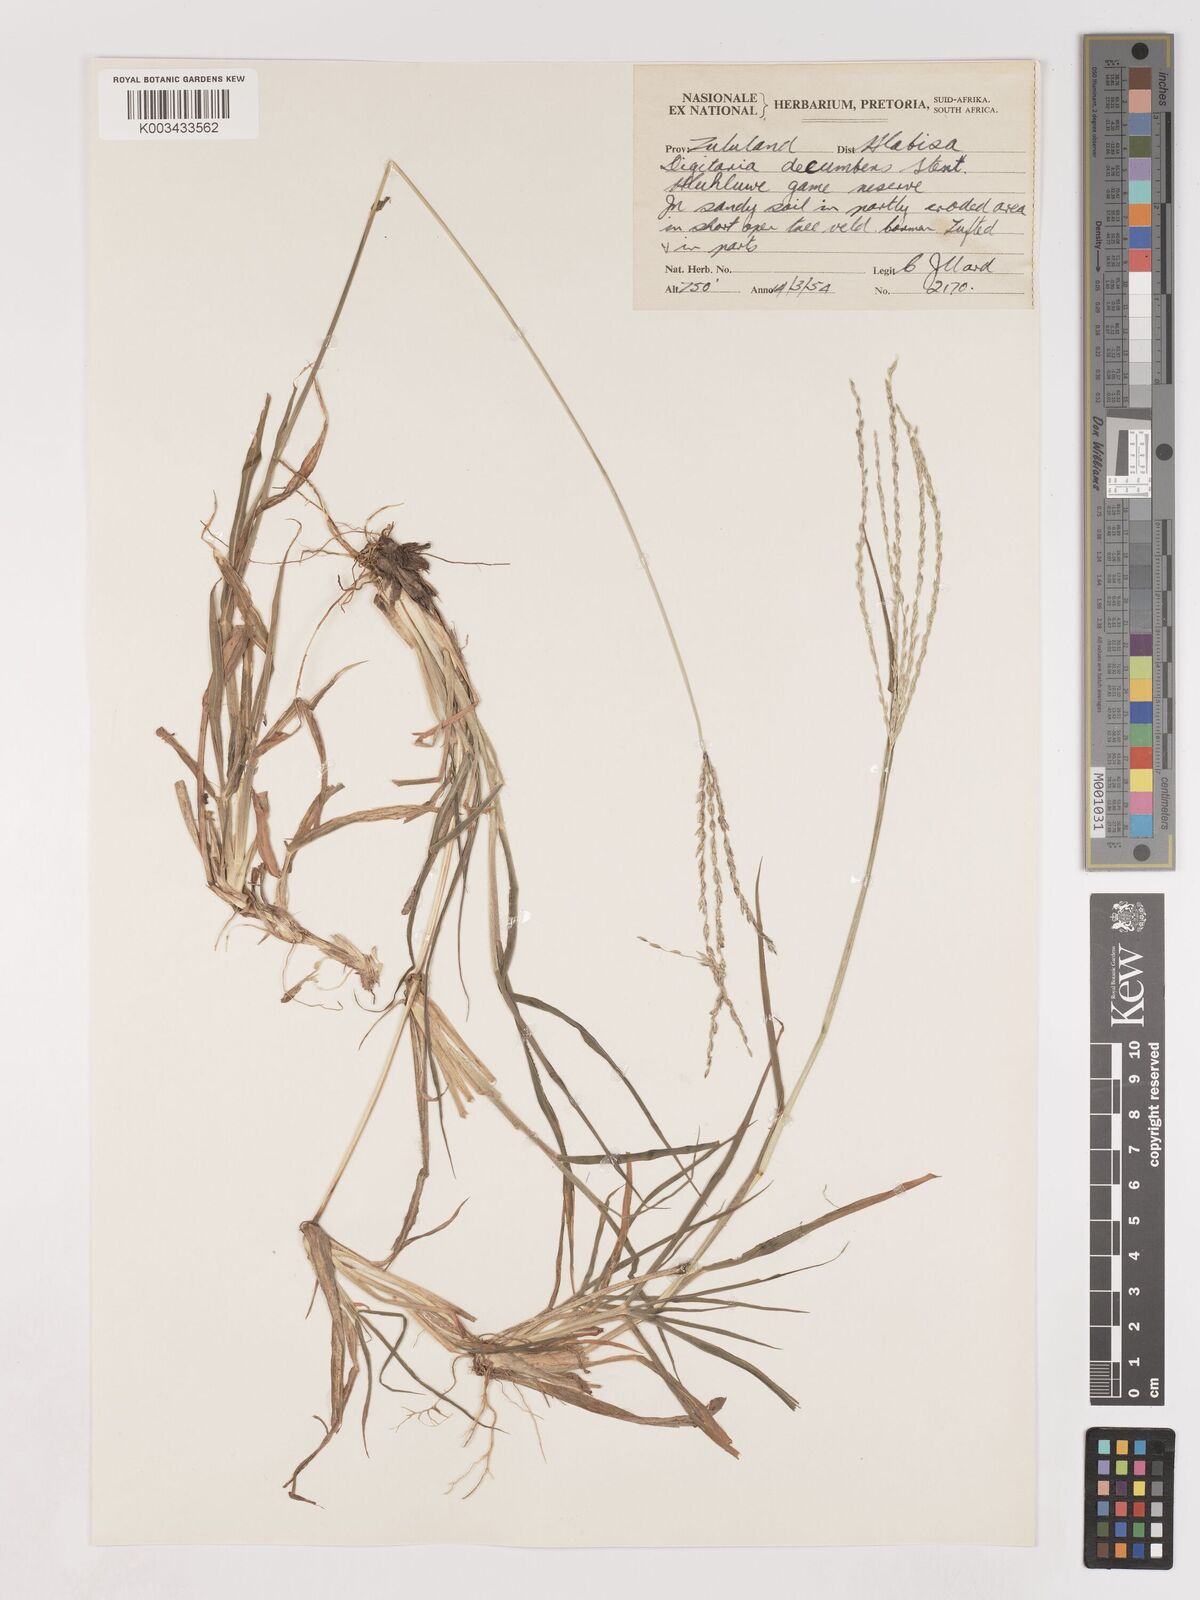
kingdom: Plantae
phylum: Tracheophyta
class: Liliopsida
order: Poales
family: Poaceae
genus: Digitaria
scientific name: Digitaria eriantha
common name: Digitgrass
